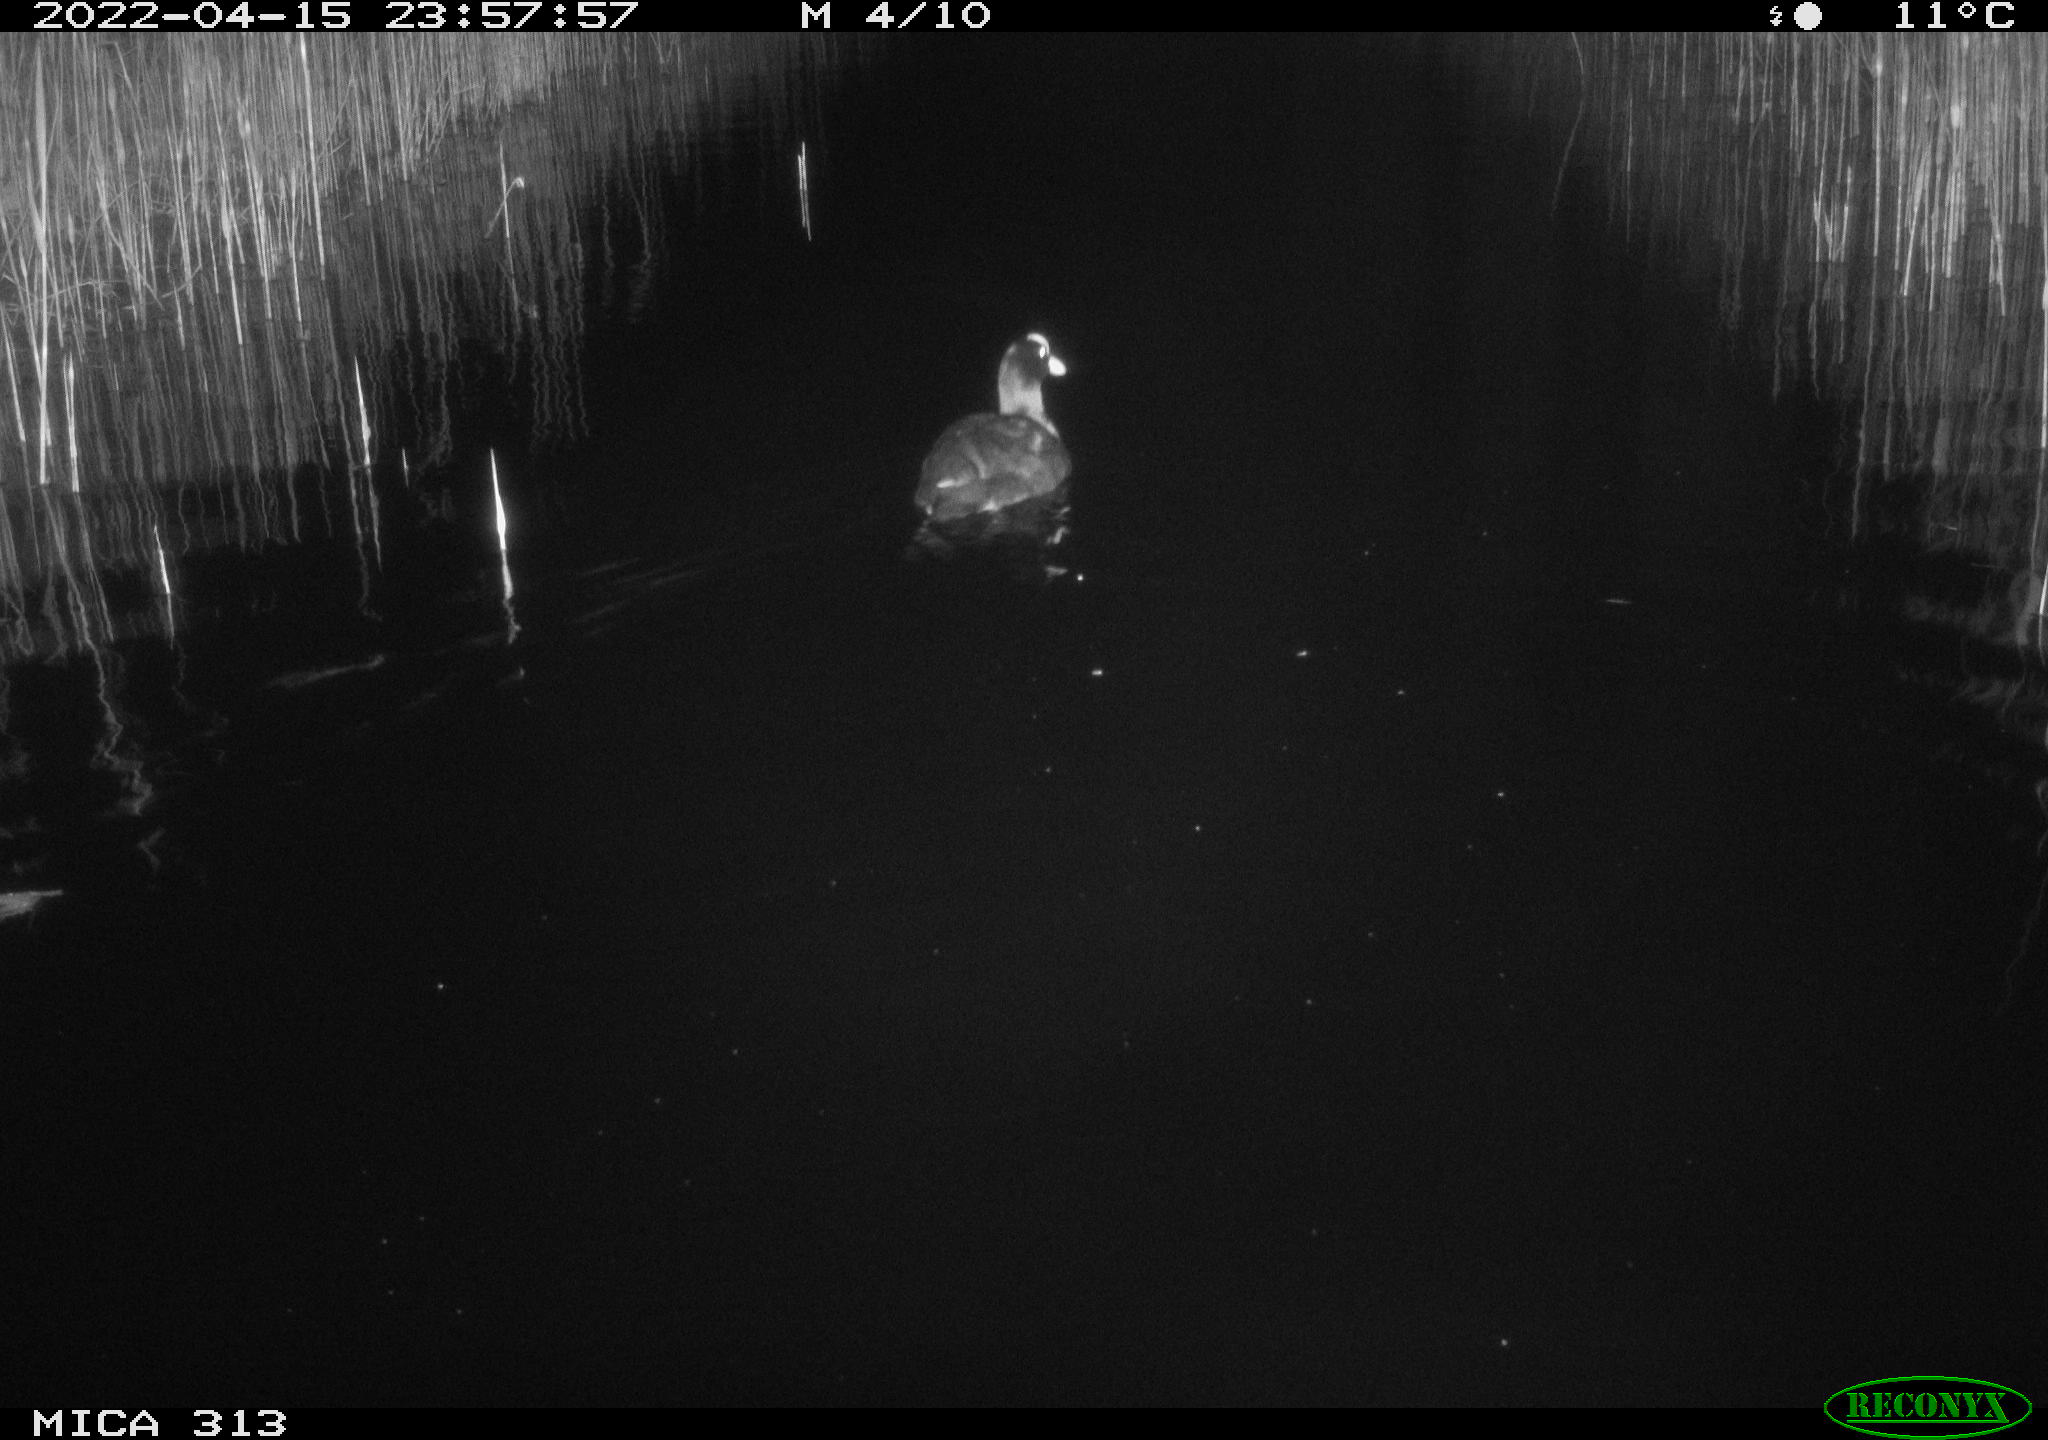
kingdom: Animalia
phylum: Chordata
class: Aves
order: Gruiformes
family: Rallidae
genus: Fulica
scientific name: Fulica atra
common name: Eurasian coot
